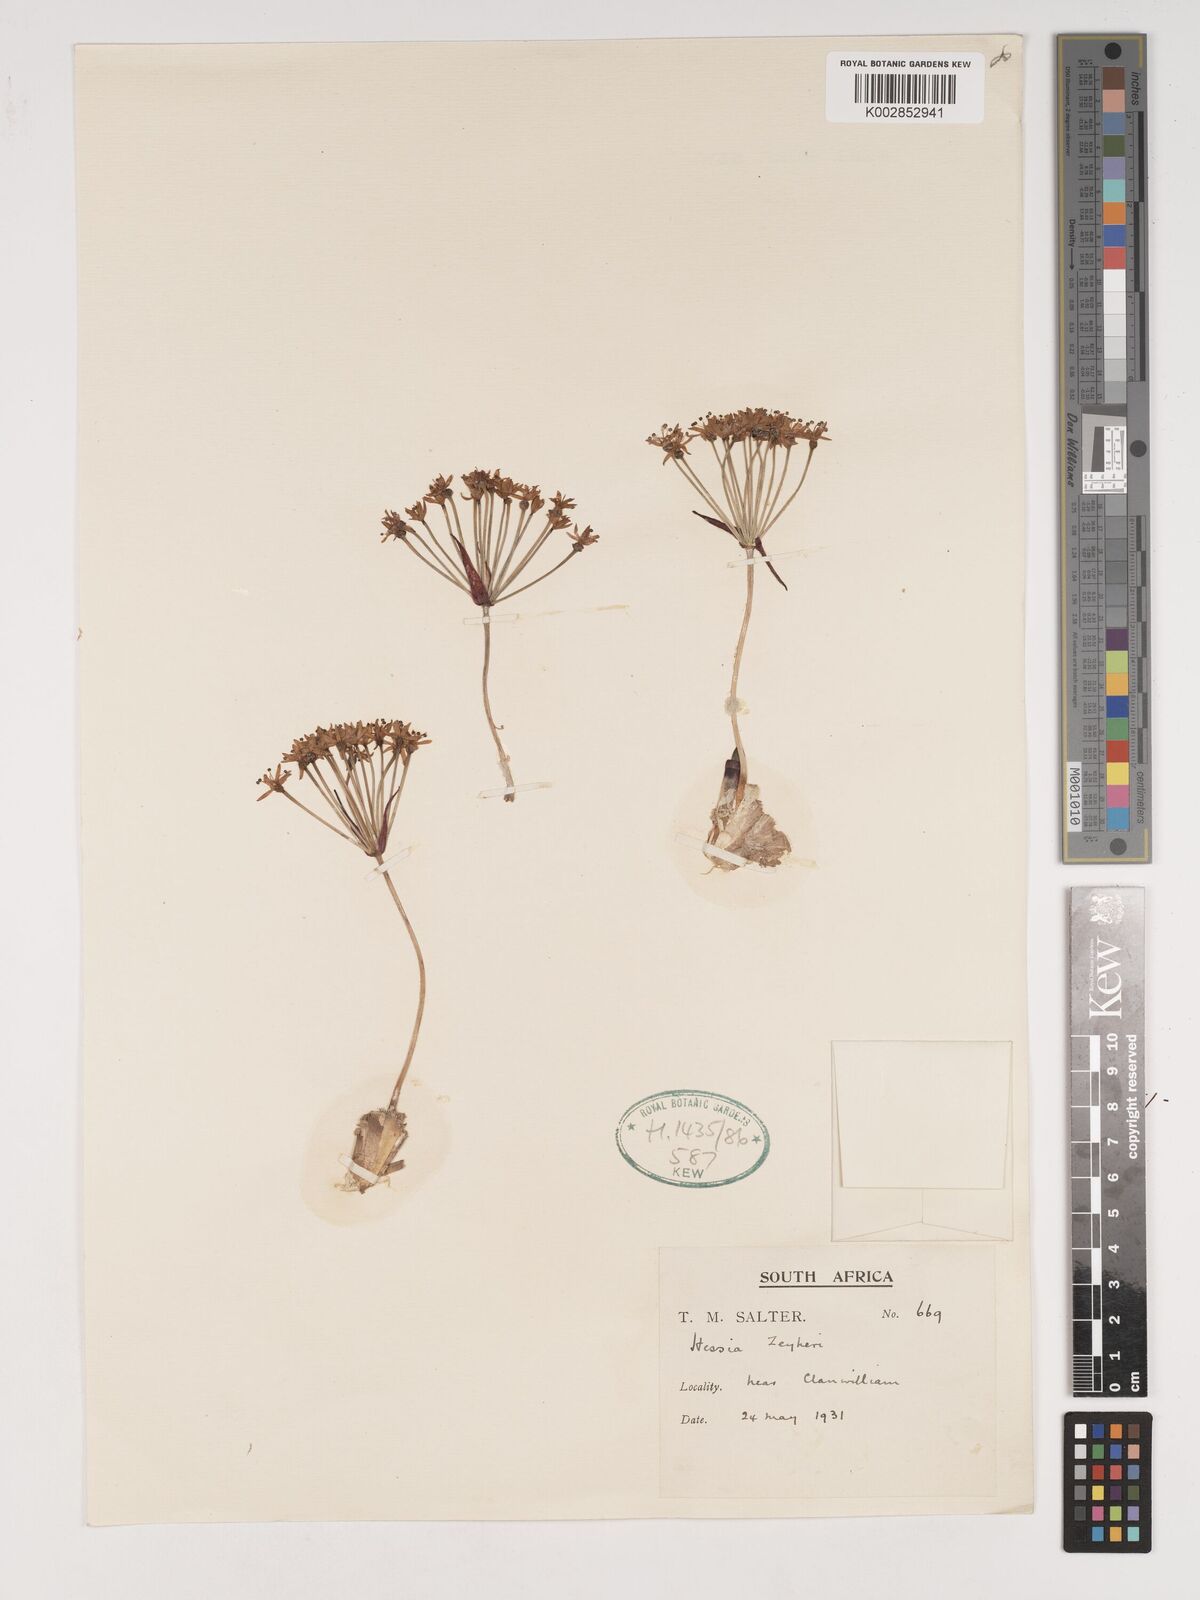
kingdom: Plantae
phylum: Tracheophyta
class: Liliopsida
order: Asparagales
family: Amaryllidaceae
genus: Hessea
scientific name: Hessea breviflora
